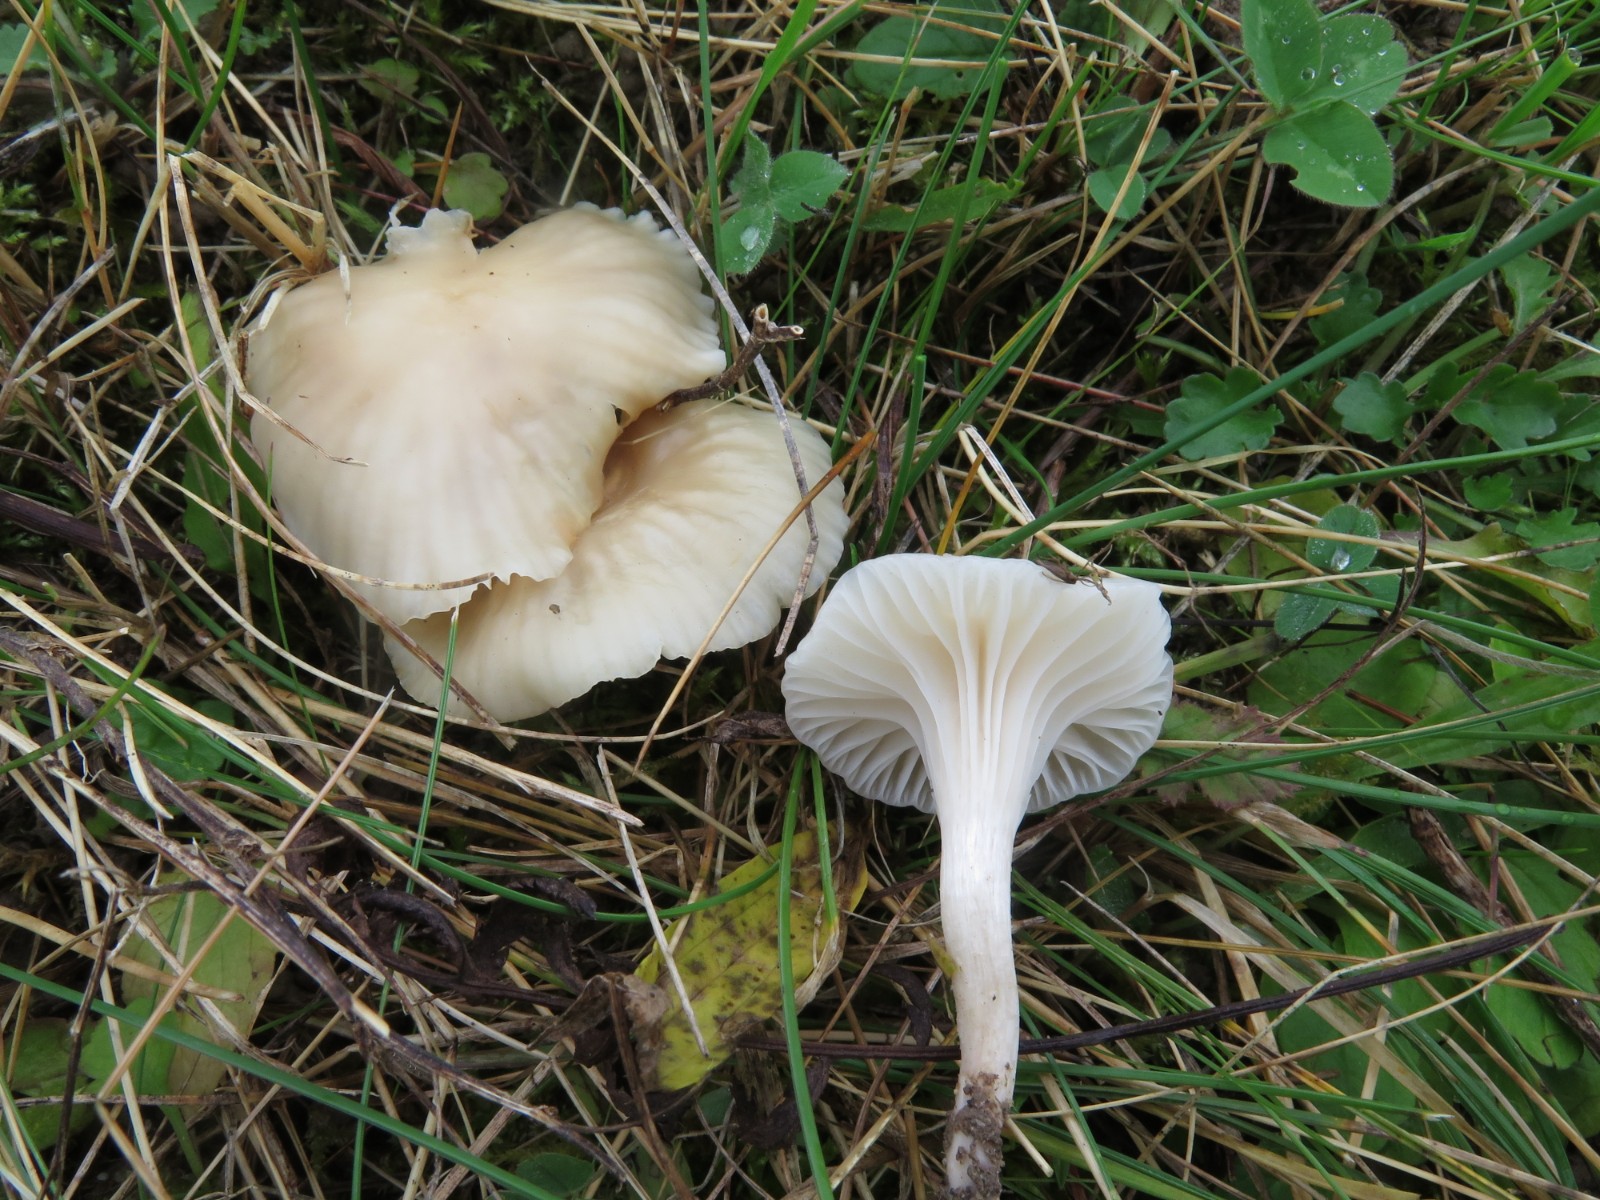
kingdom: Fungi
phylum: Basidiomycota
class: Agaricomycetes
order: Agaricales
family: Hygrophoraceae
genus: Cuphophyllus
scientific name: Cuphophyllus virgineus
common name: snehvid vokshat
